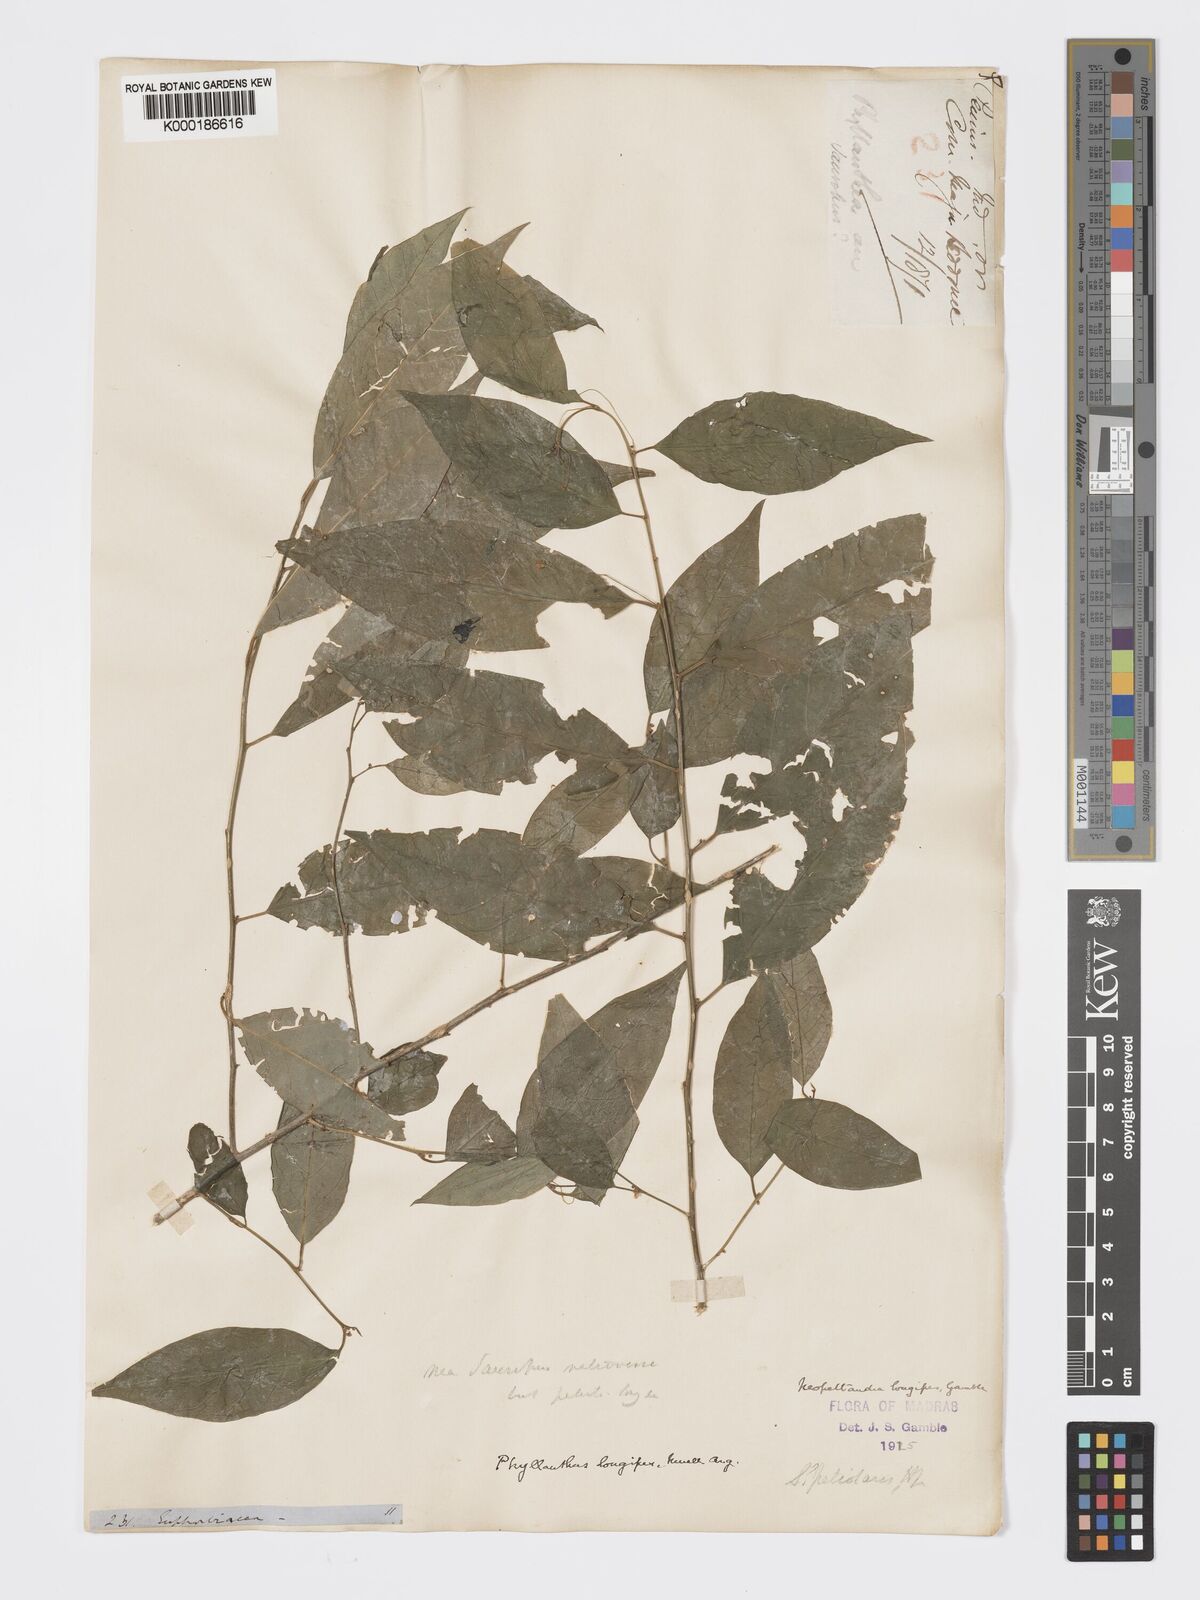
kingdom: Plantae
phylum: Tracheophyta
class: Magnoliopsida
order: Malpighiales
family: Phyllanthaceae
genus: Meineckia
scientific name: Meineckia longipes
